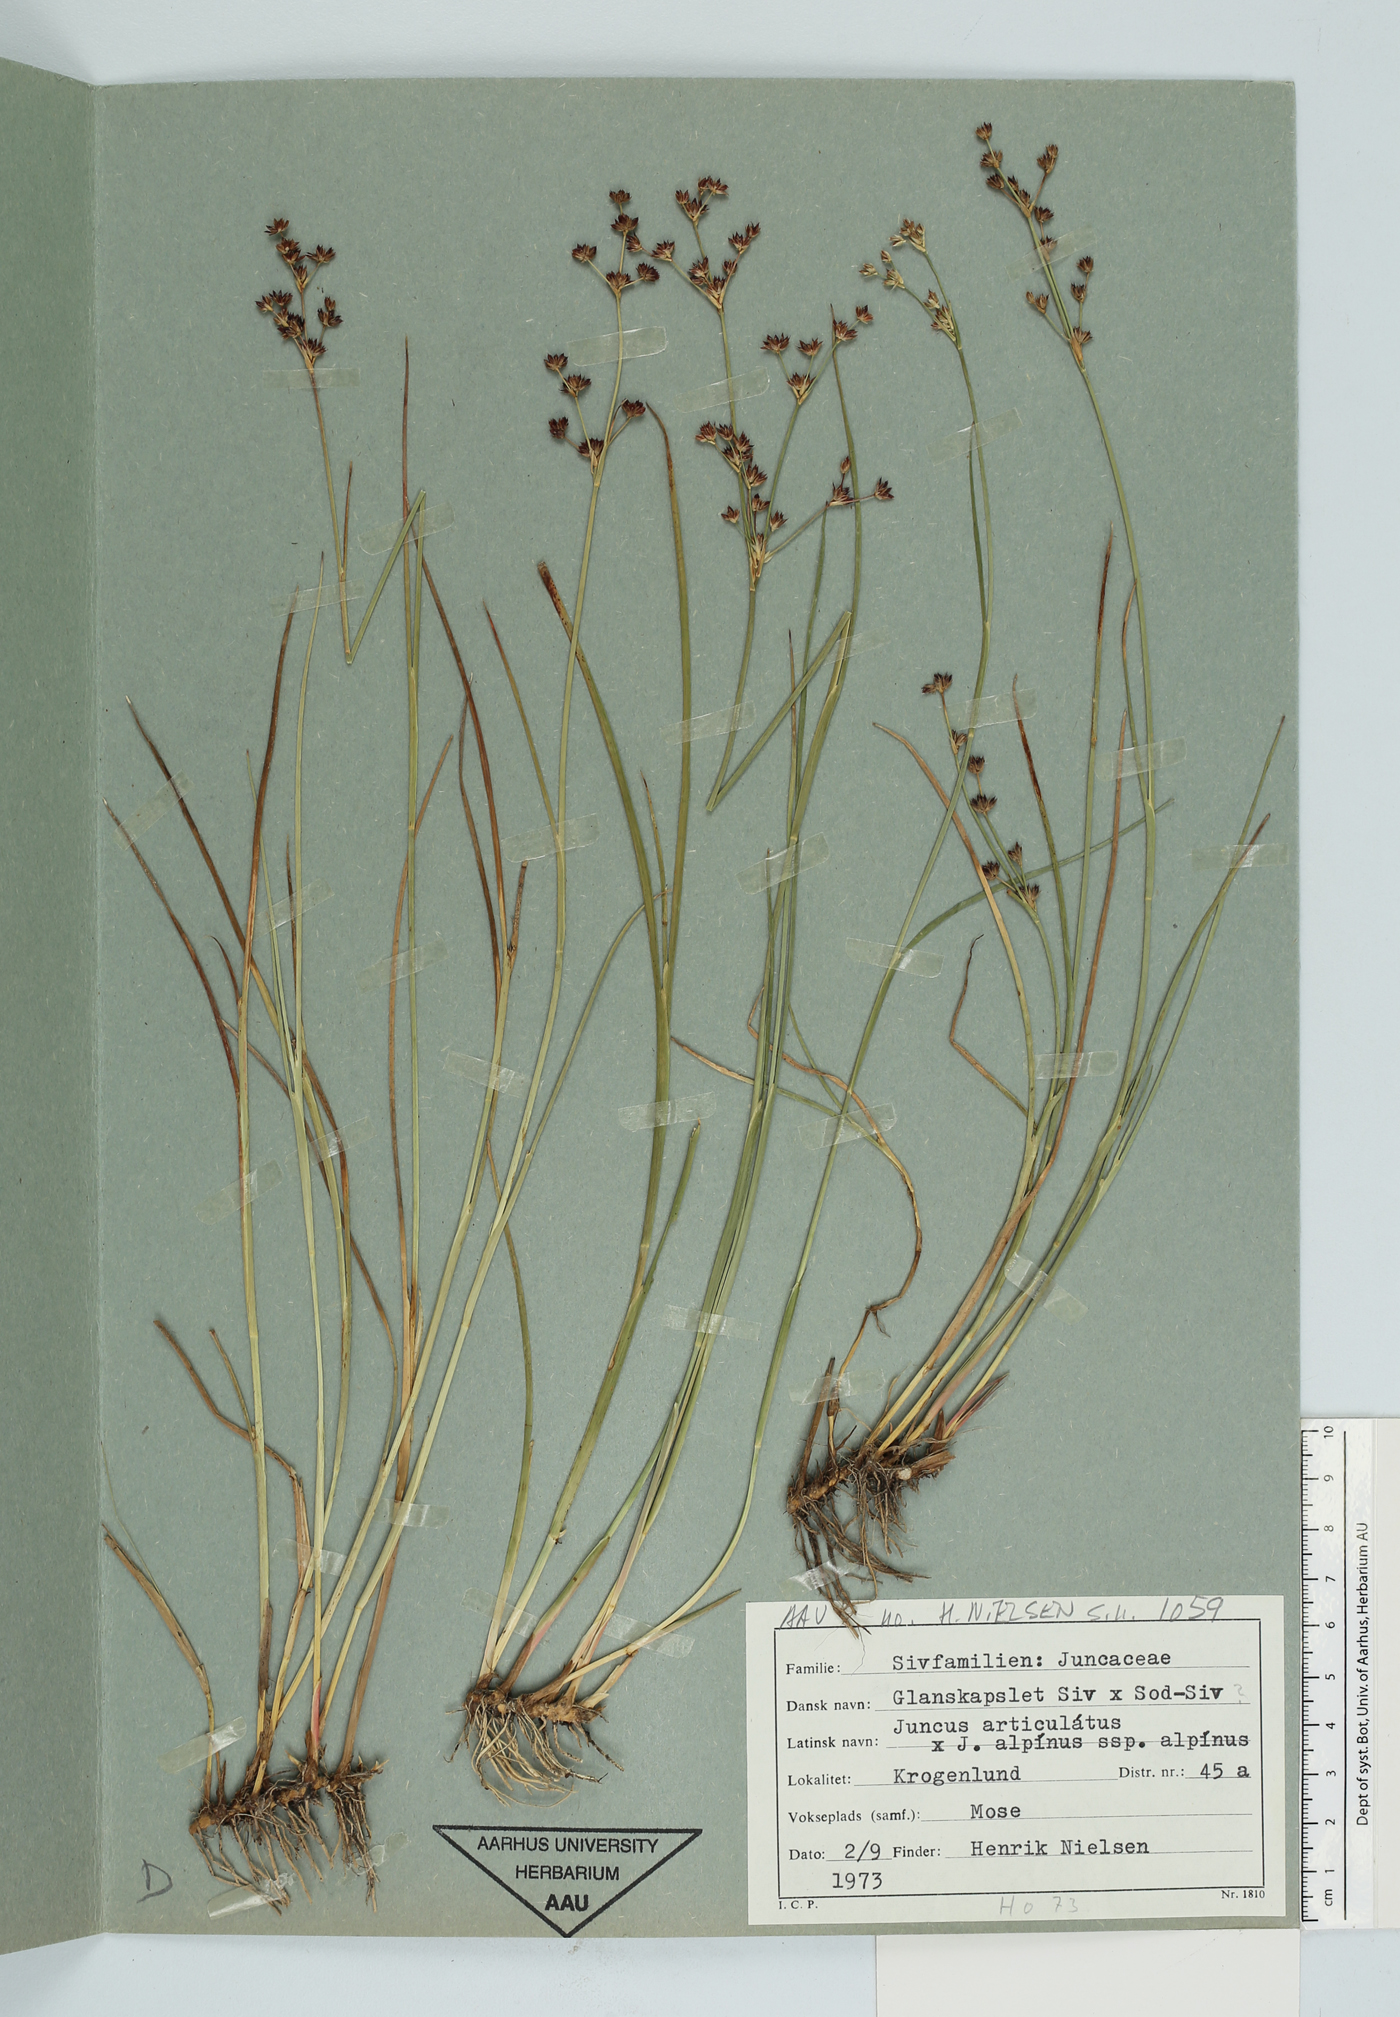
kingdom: Plantae
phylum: Tracheophyta
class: Liliopsida
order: Poales
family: Juncaceae
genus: Juncus
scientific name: Juncus articulatus
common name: Jointed rush
